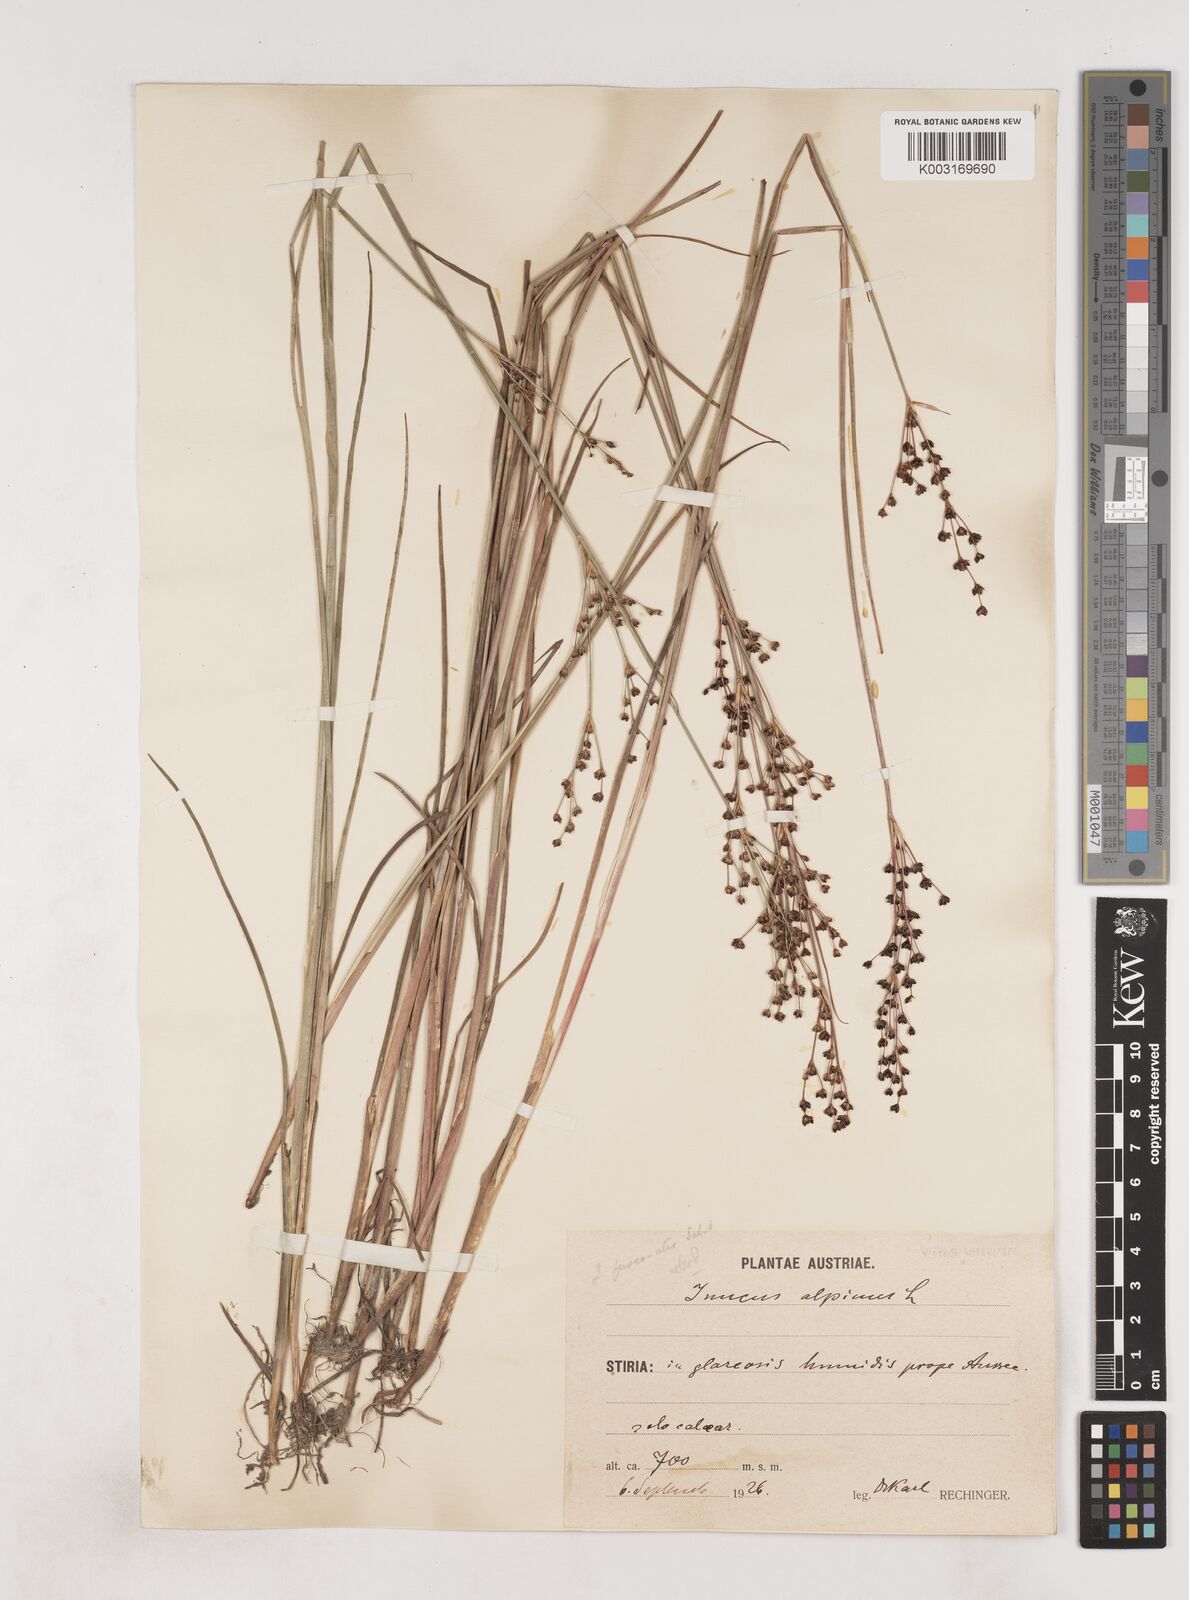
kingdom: Plantae
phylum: Tracheophyta
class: Liliopsida
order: Poales
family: Juncaceae
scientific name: Juncaceae
